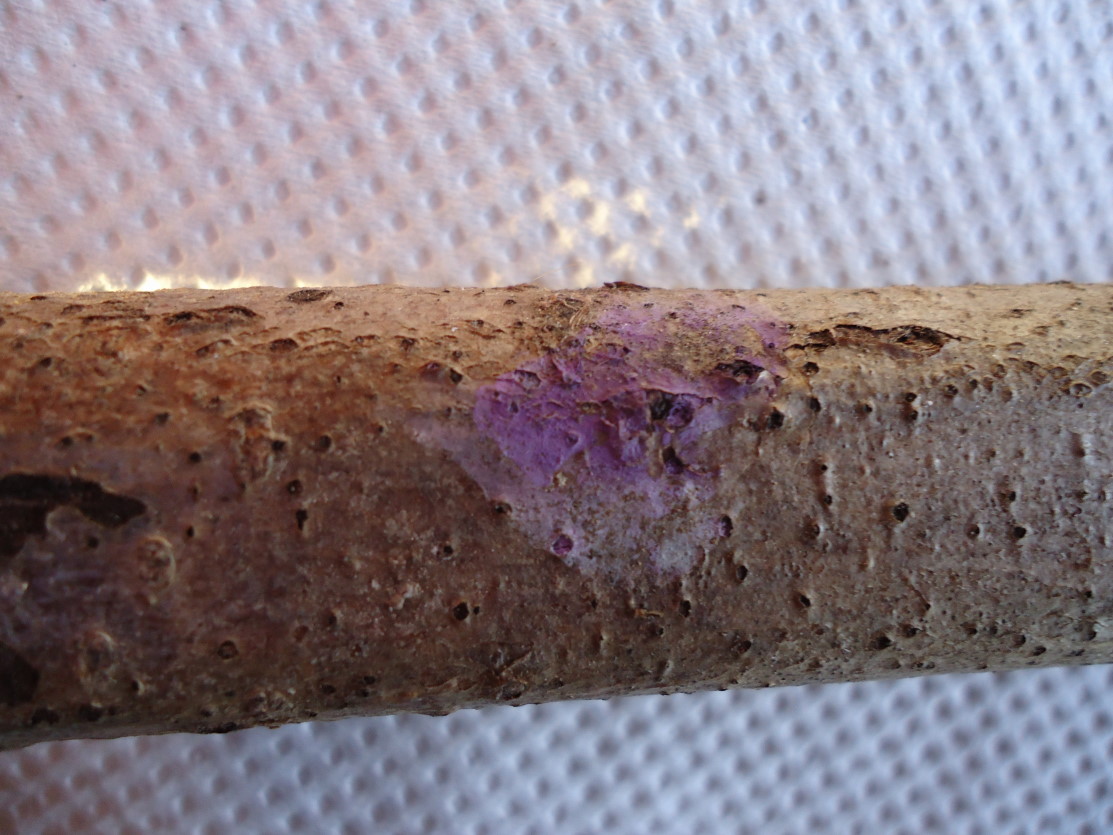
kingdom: Fungi
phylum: Basidiomycota
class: Agaricomycetes
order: Cantharellales
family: Tulasnellaceae
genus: Tulasnella
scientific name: Tulasnella violea
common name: violet ballonhinde
